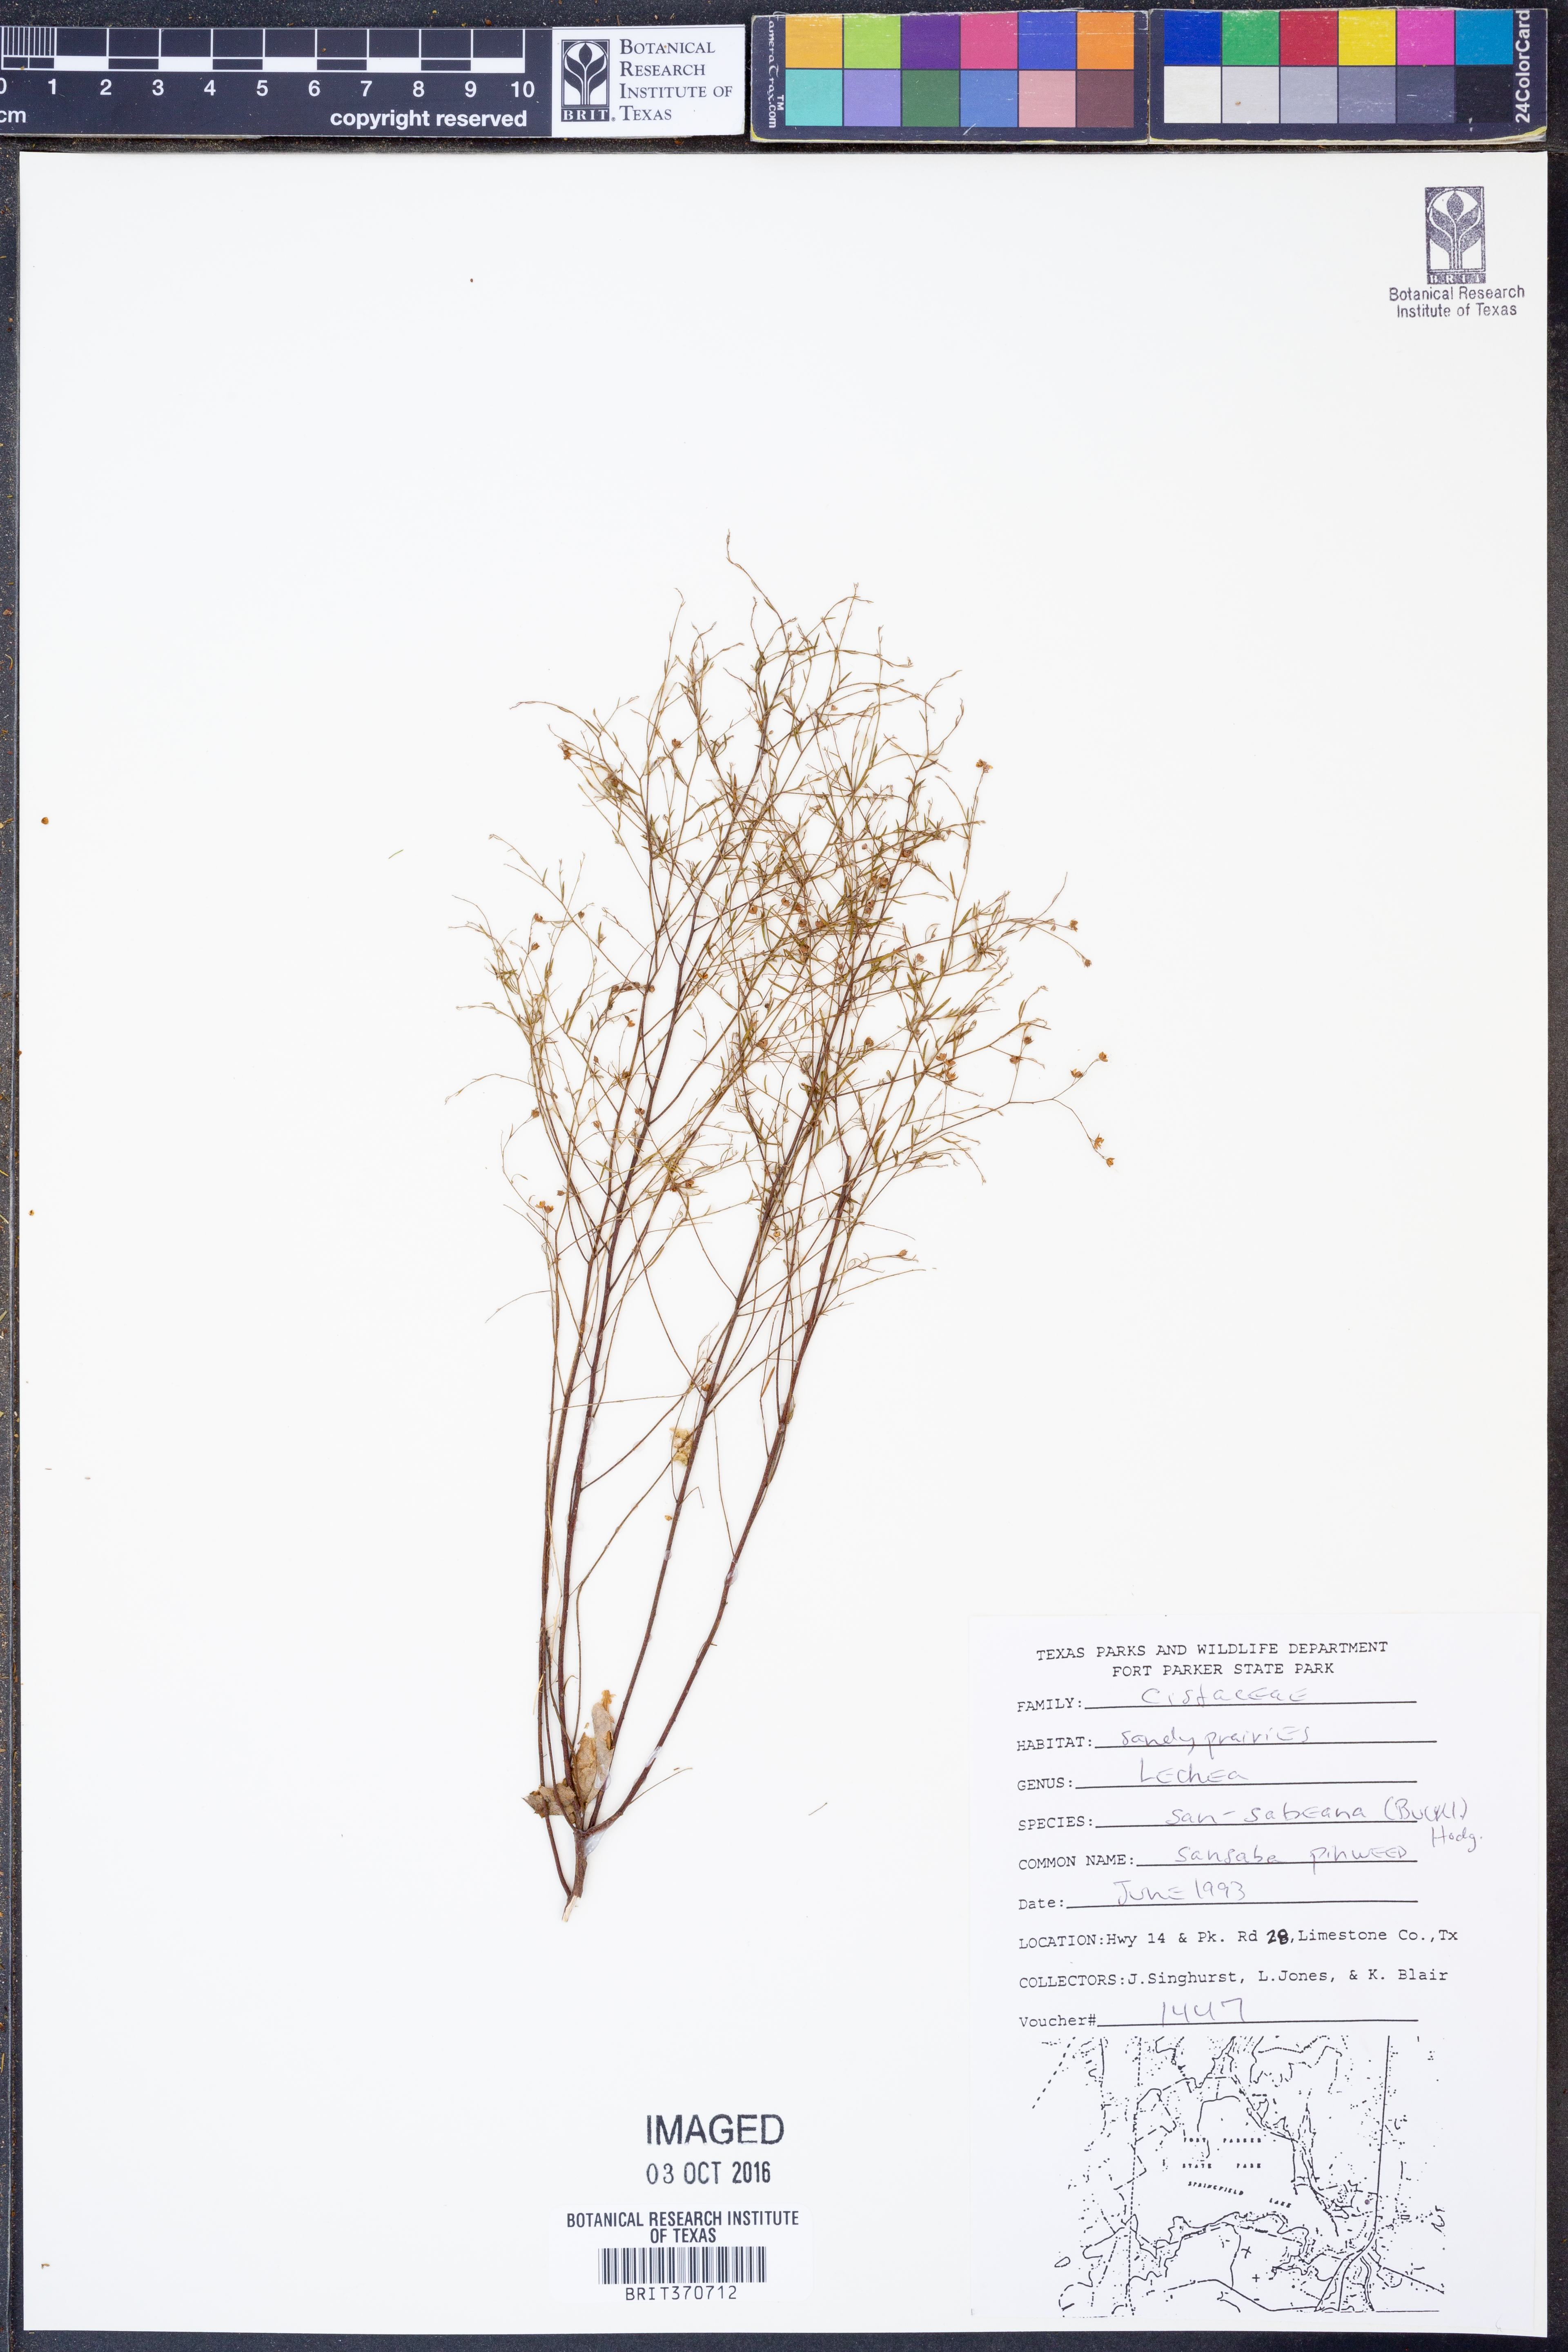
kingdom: Plantae
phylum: Tracheophyta
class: Magnoliopsida
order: Malvales
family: Cistaceae
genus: Lechea
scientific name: Lechea san-sabeana
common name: San saba pinweed
